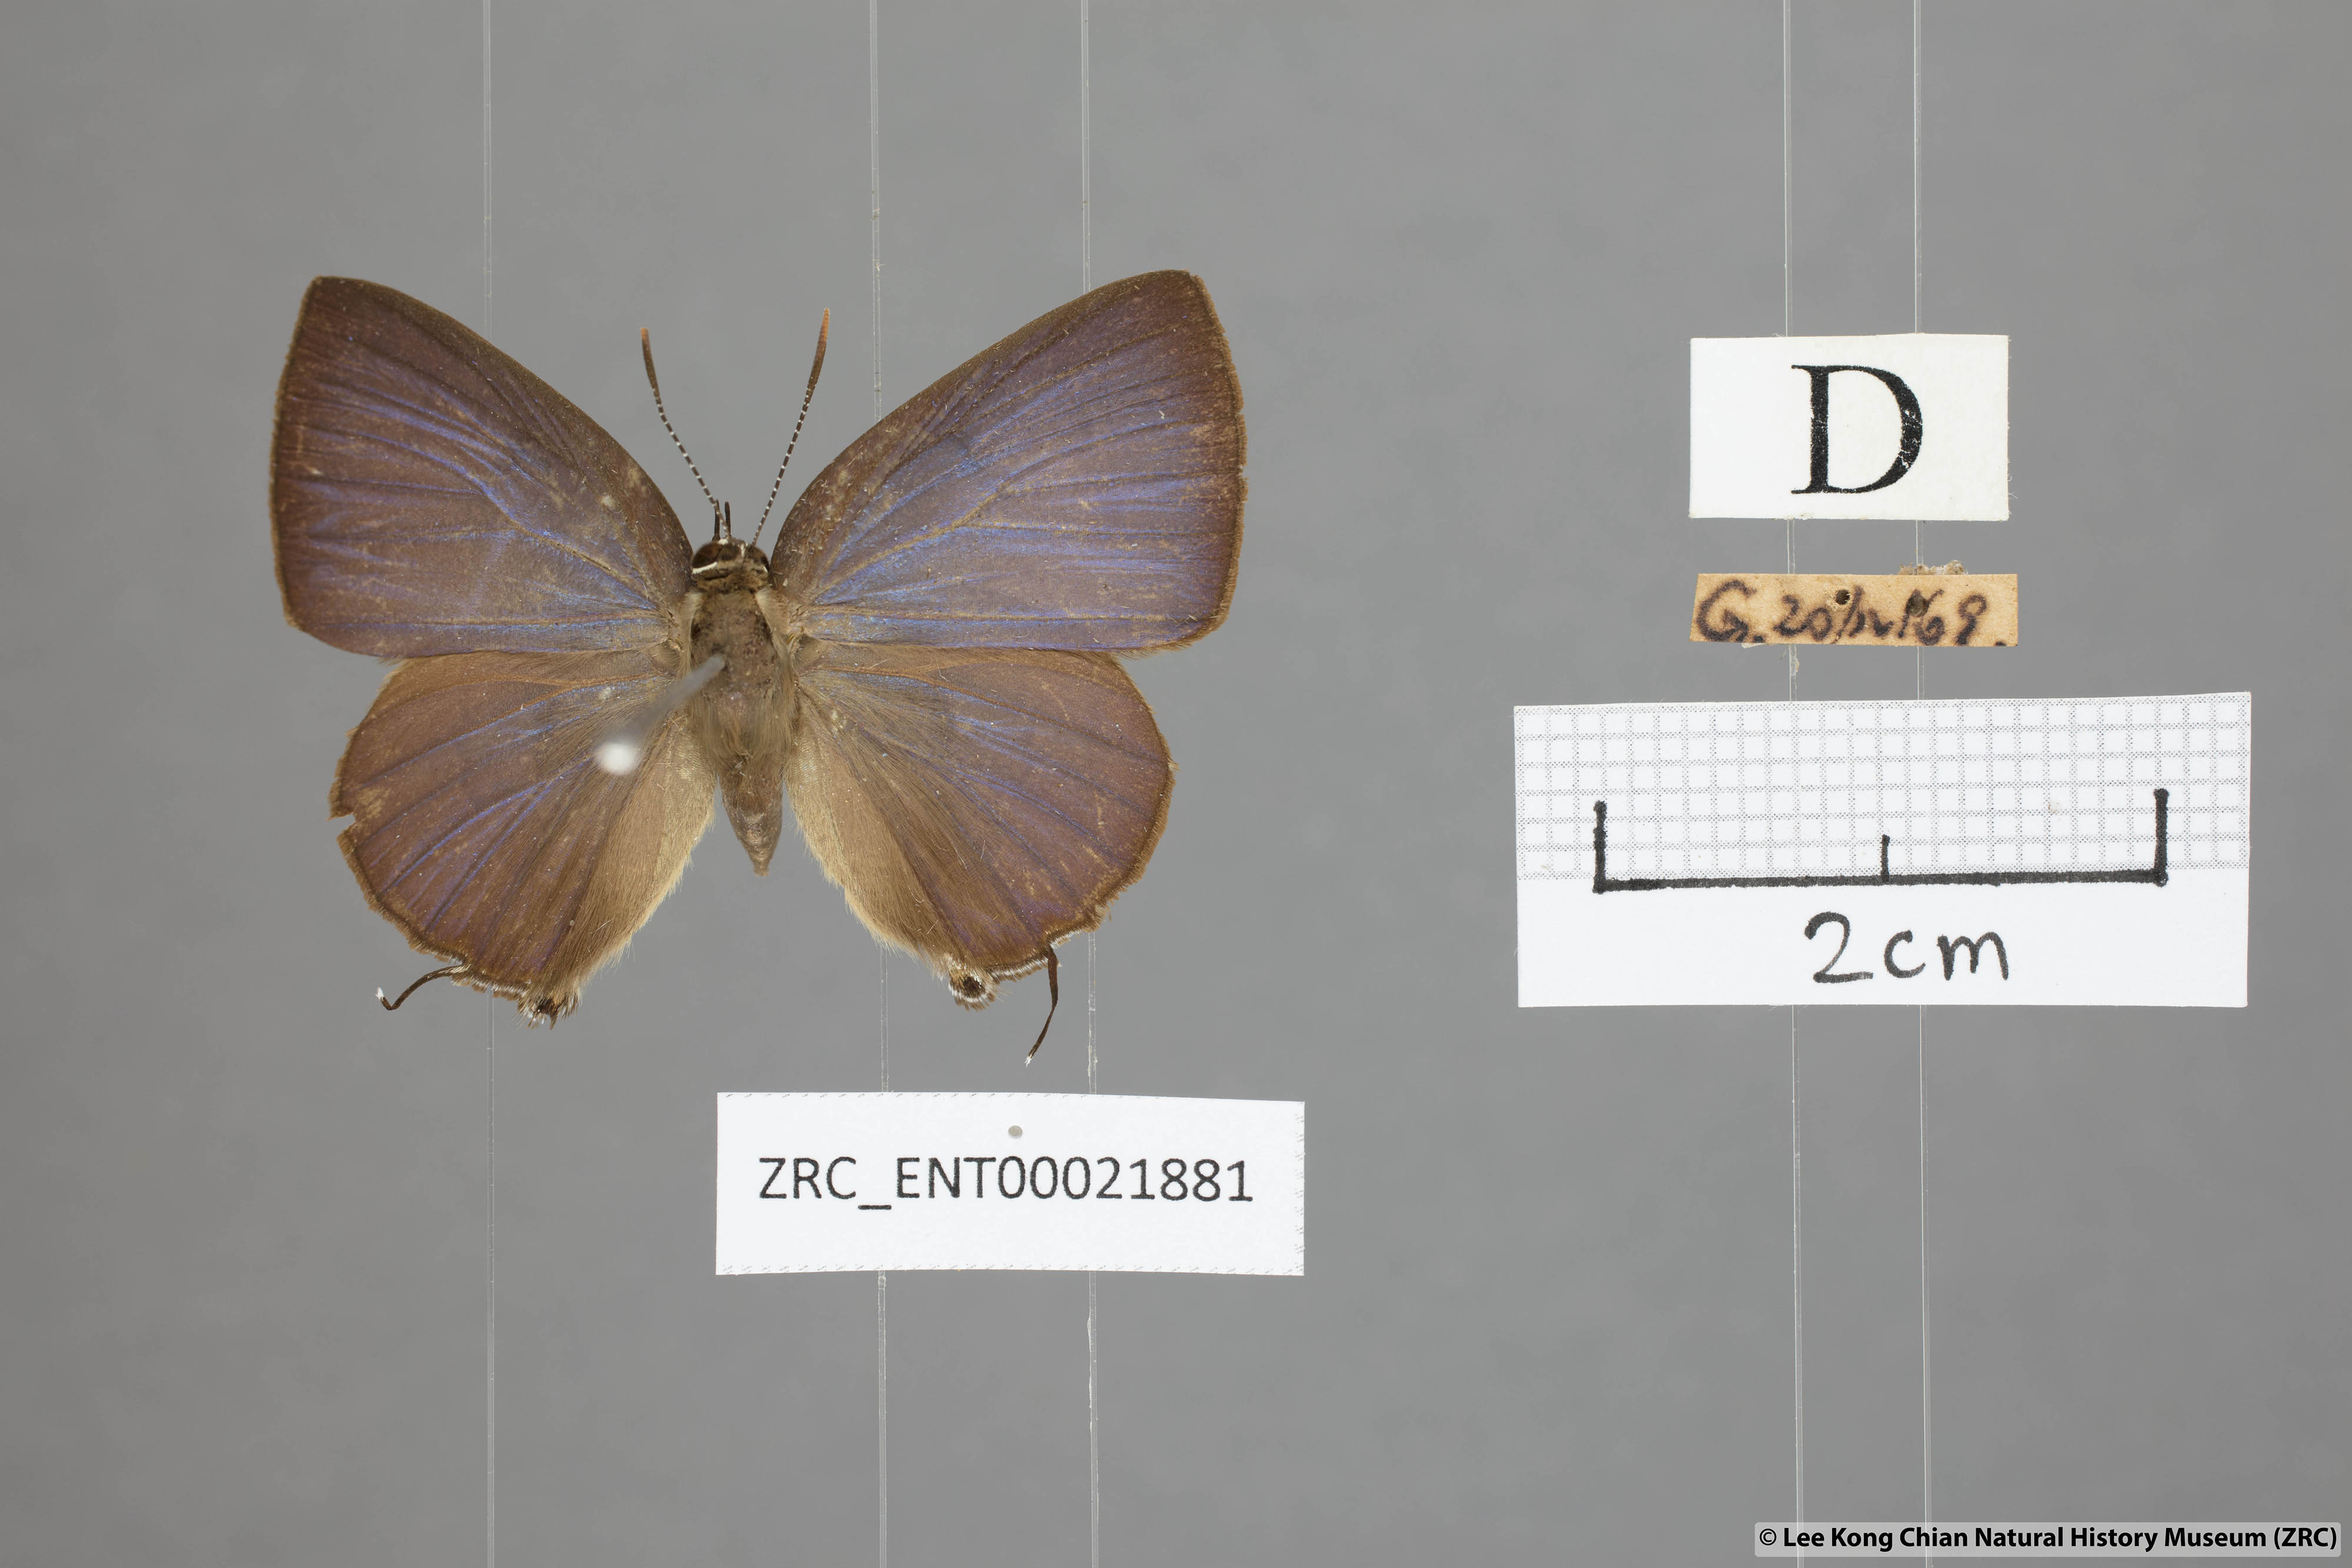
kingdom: Animalia
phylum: Arthropoda
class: Insecta
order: Lepidoptera
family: Lycaenidae
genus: Rapala
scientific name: Rapala pheretima
